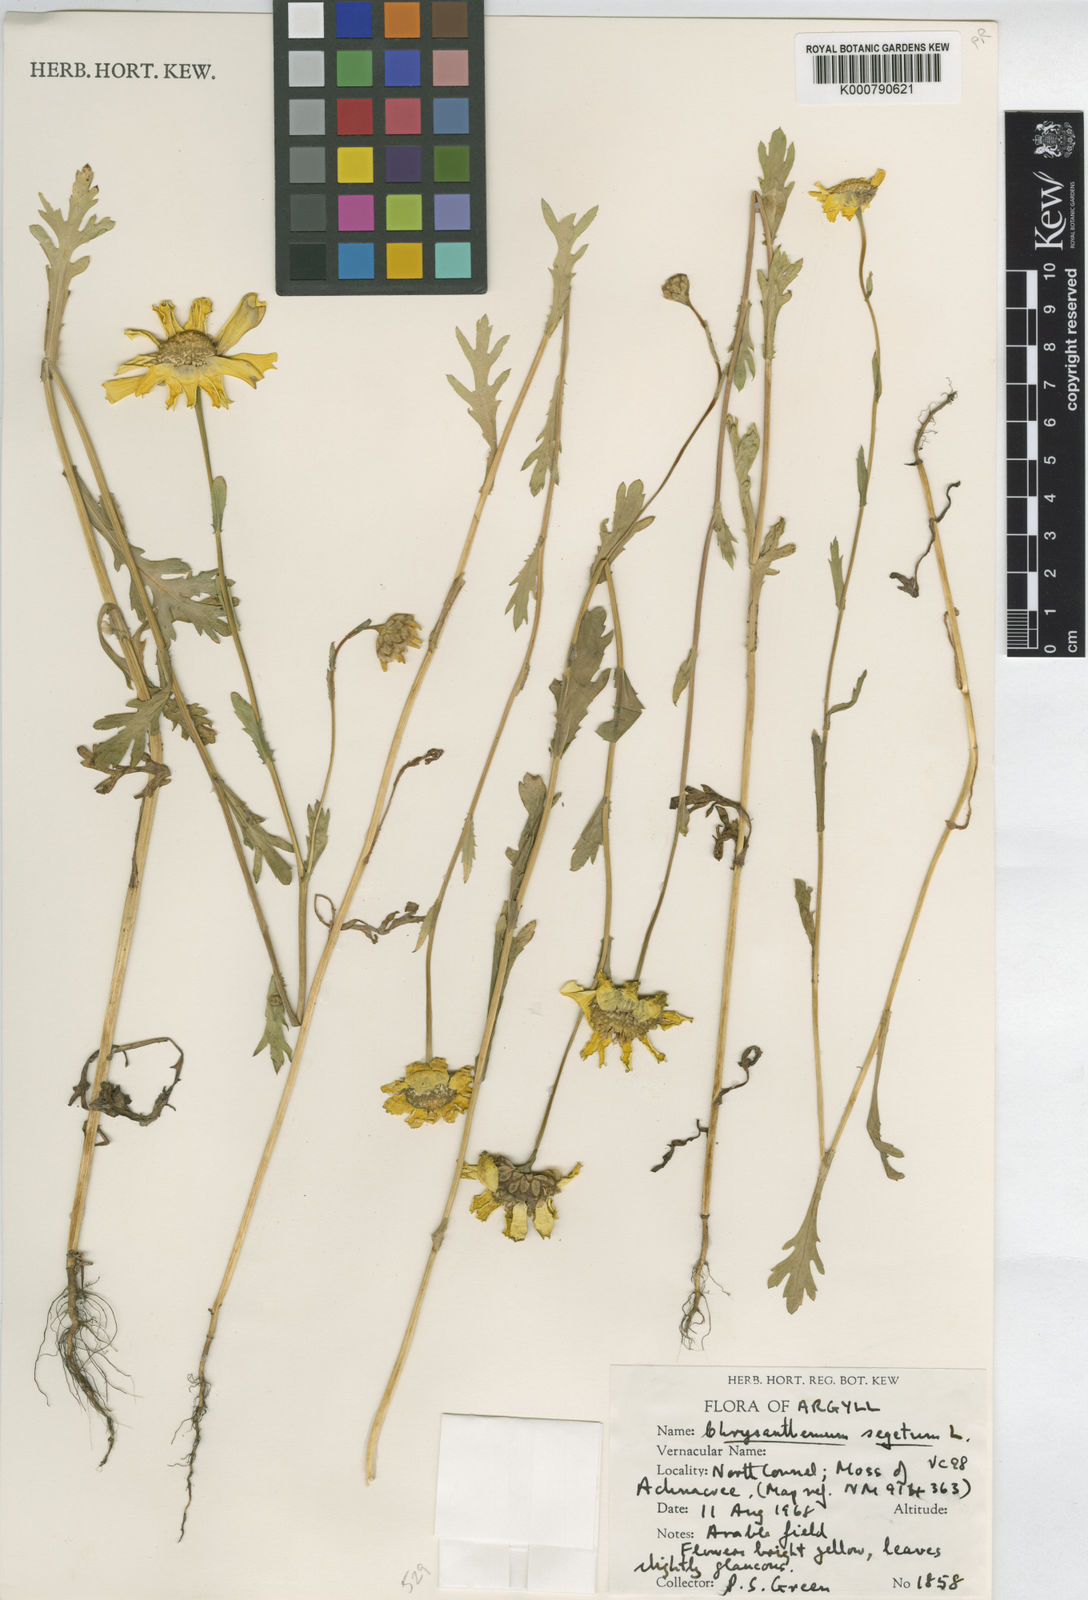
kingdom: Plantae
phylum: Tracheophyta
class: Magnoliopsida
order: Asterales
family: Asteraceae
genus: Glebionis
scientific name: Glebionis
